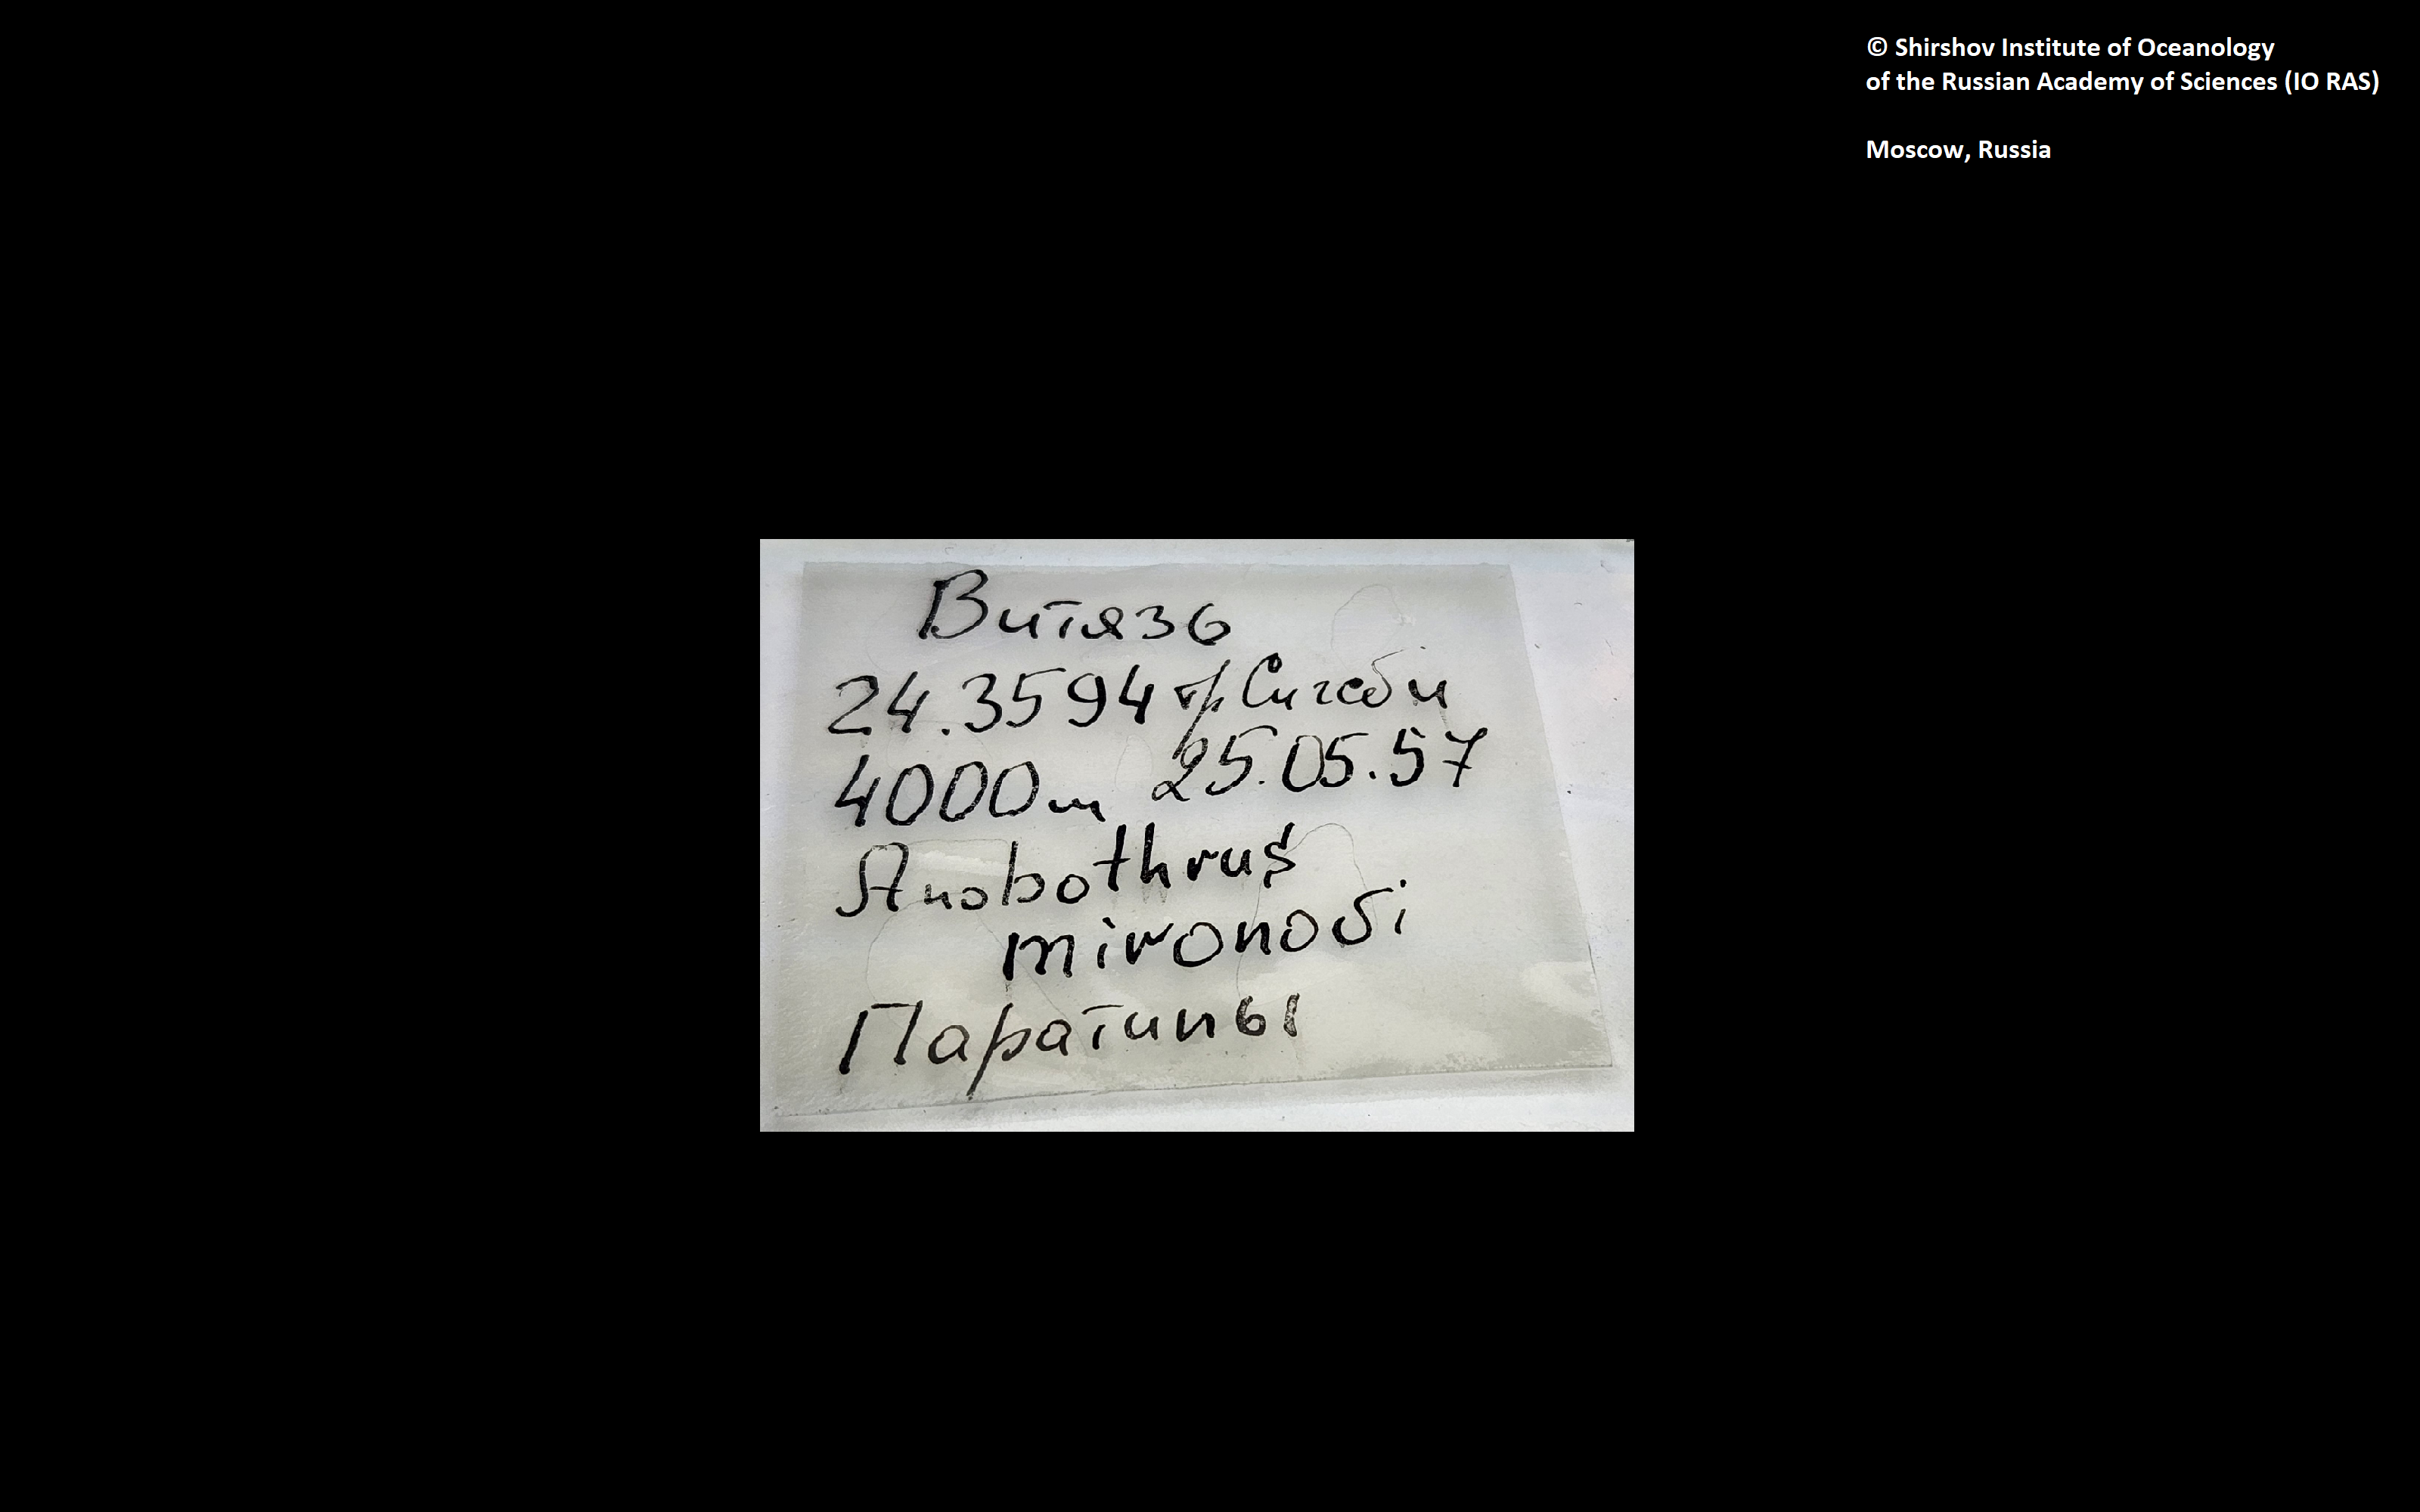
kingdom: Animalia
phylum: Annelida
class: Polychaeta
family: Ampharetidae
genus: Anobothrus
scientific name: Anobothrus mironovi
